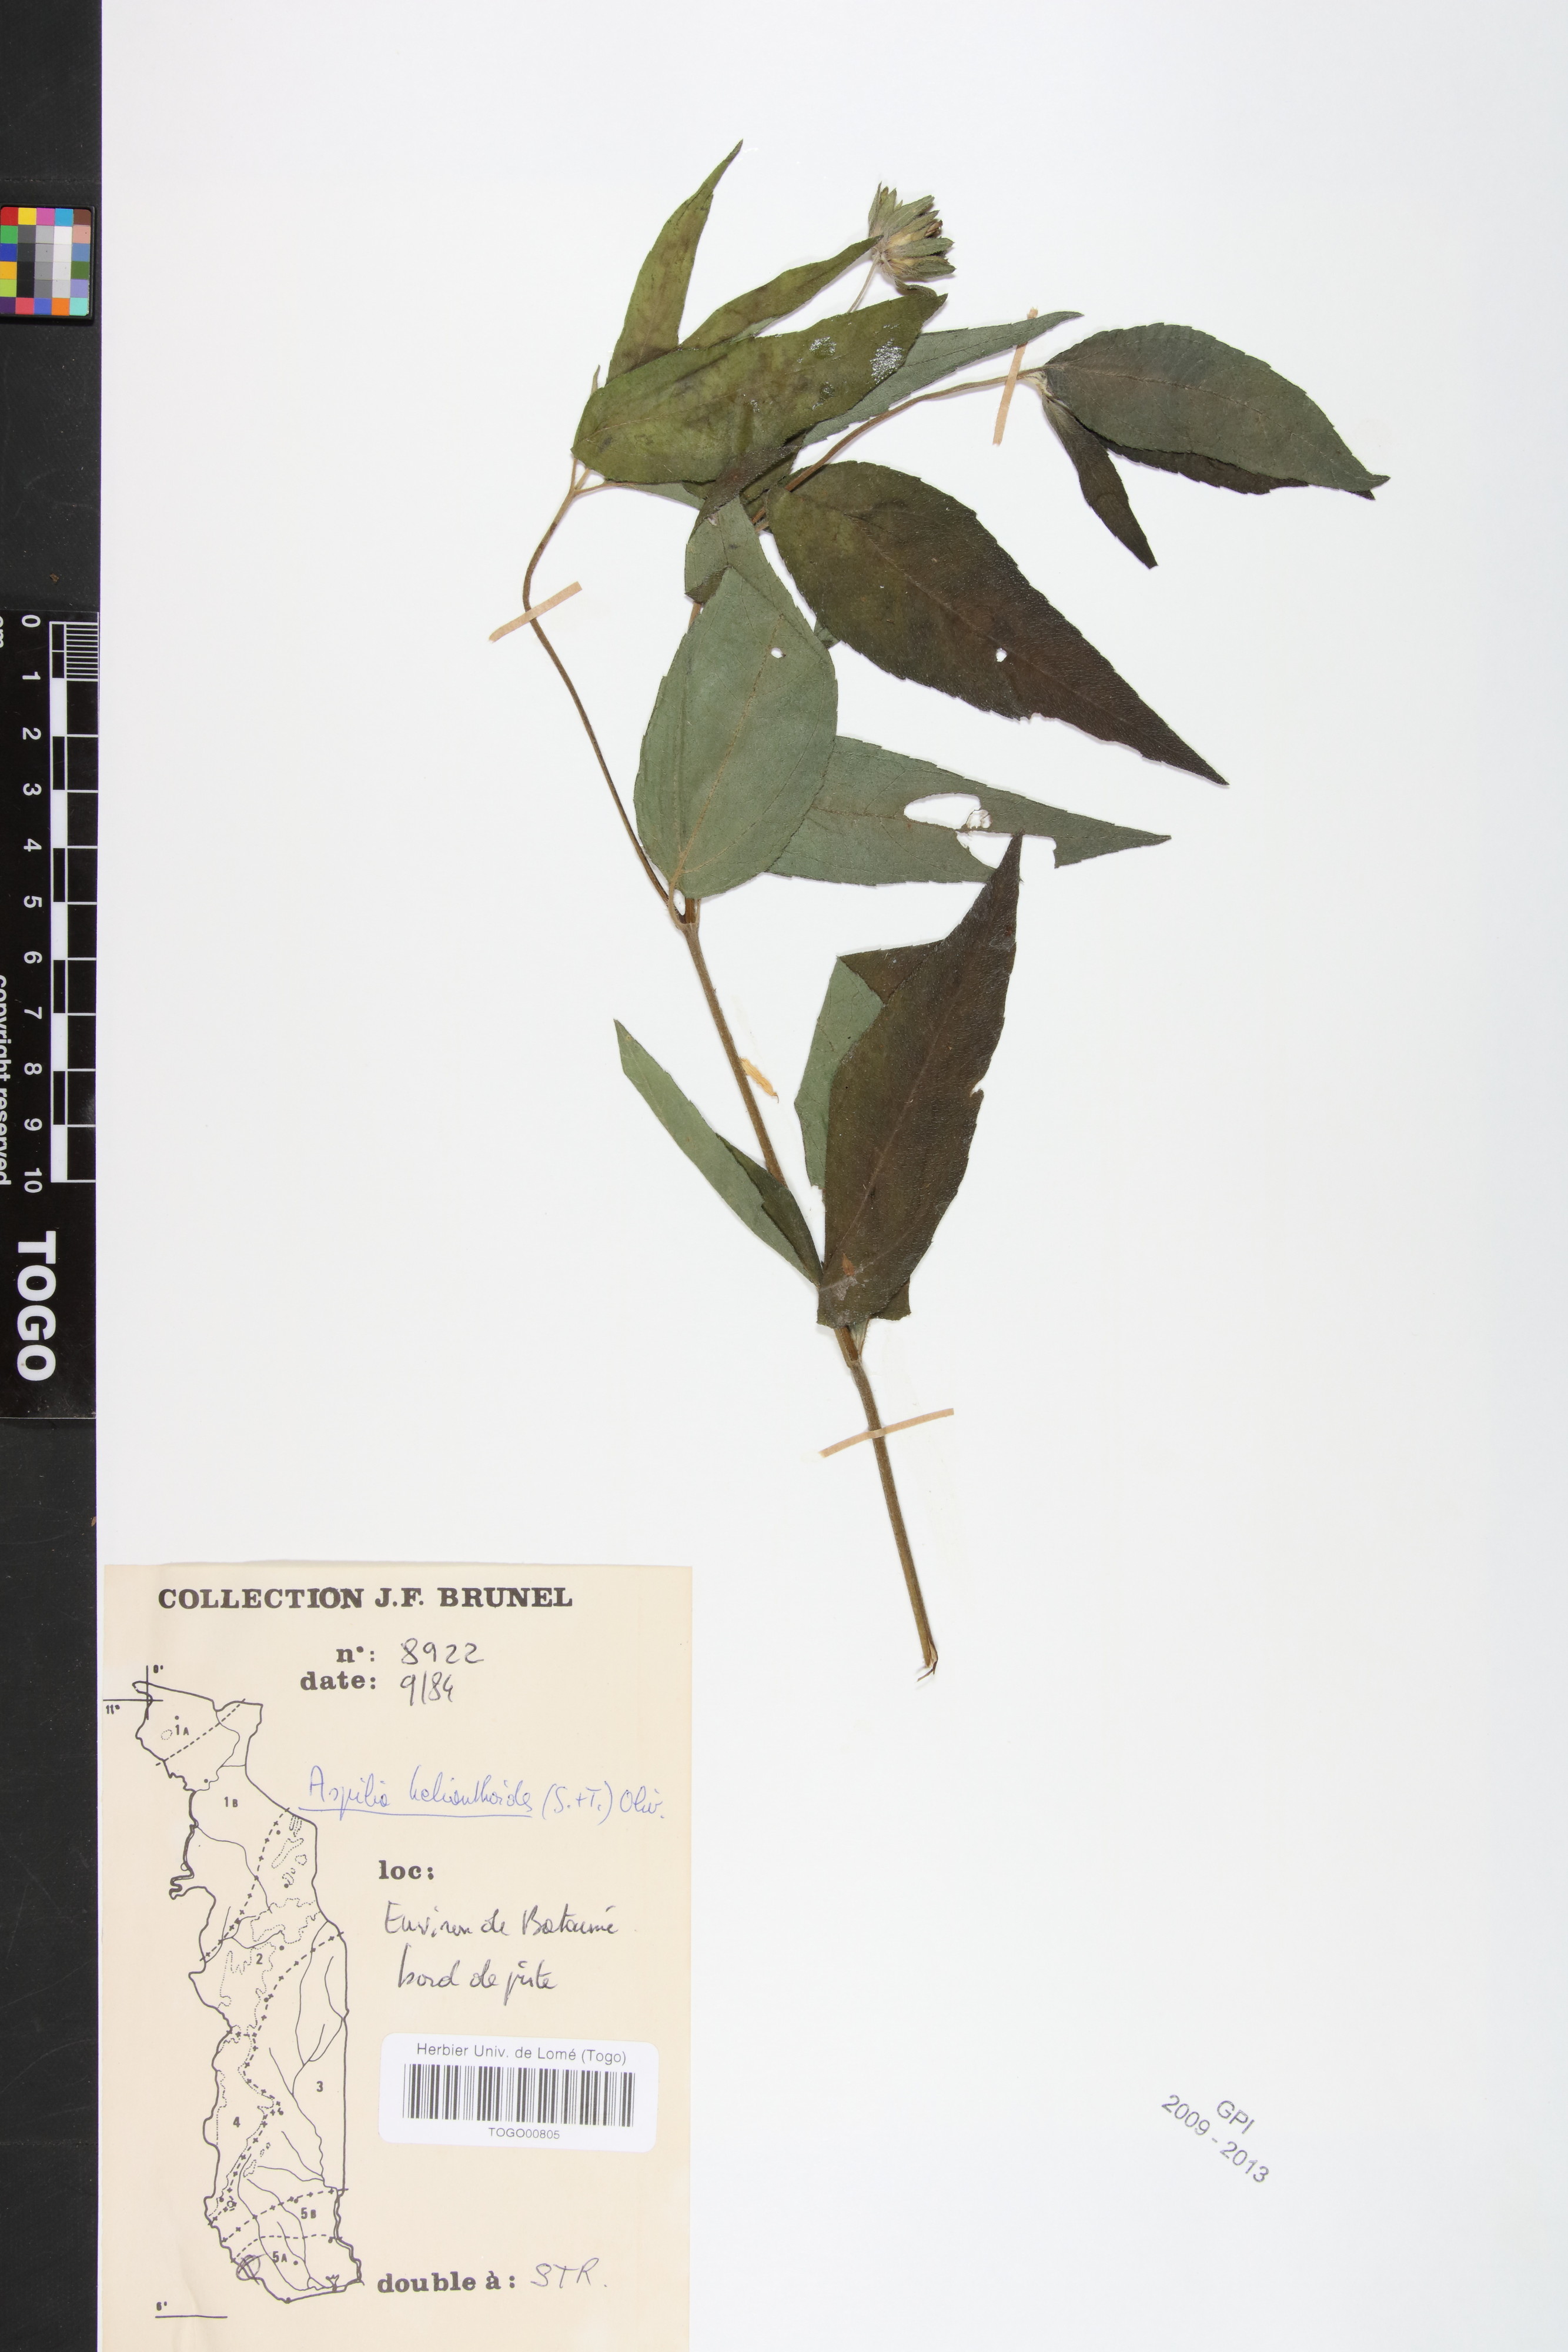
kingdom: Plantae
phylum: Tracheophyta
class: Magnoliopsida
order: Asterales
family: Asteraceae
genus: Aspilia
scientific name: Aspilia helianthoides
